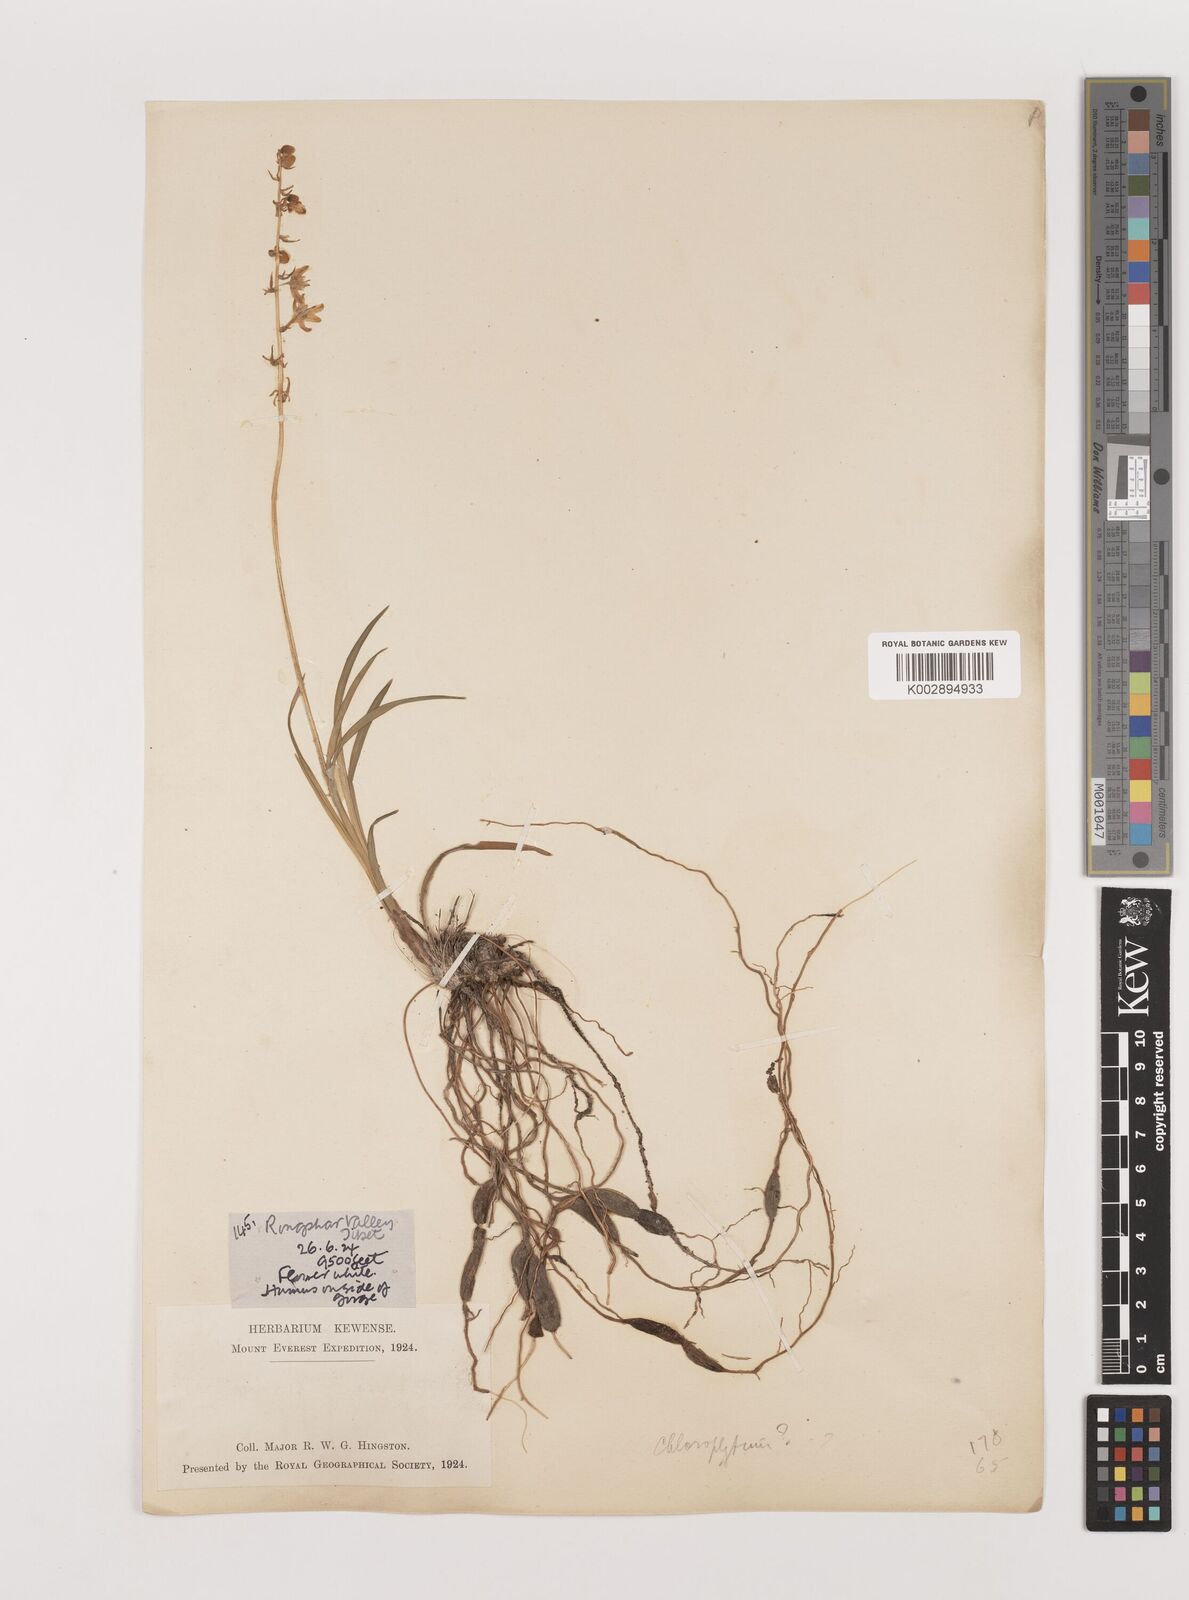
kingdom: Plantae
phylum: Tracheophyta
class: Liliopsida
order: Asparagales
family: Asparagaceae
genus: Ophiopogon
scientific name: Ophiopogon intermedius
